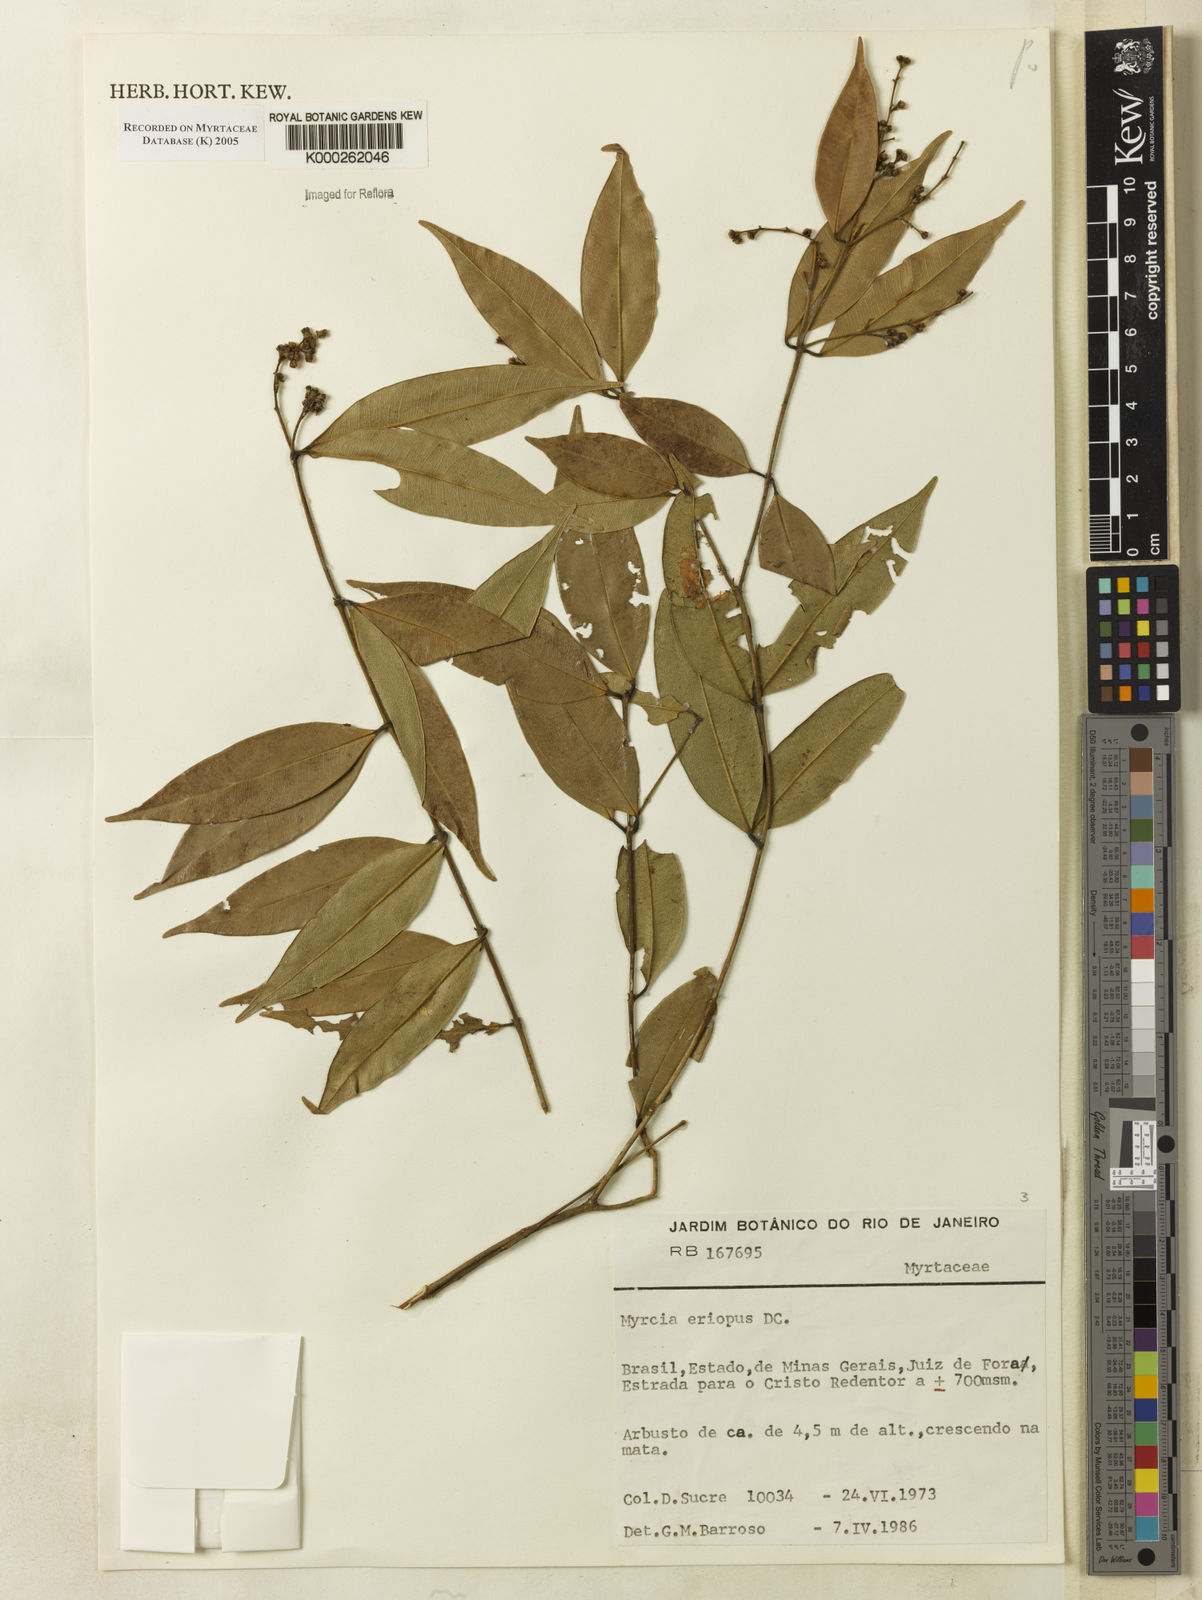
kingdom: Plantae
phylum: Tracheophyta
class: Magnoliopsida
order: Myrtales
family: Myrtaceae
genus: Myrcia
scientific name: Myrcia eriopus
